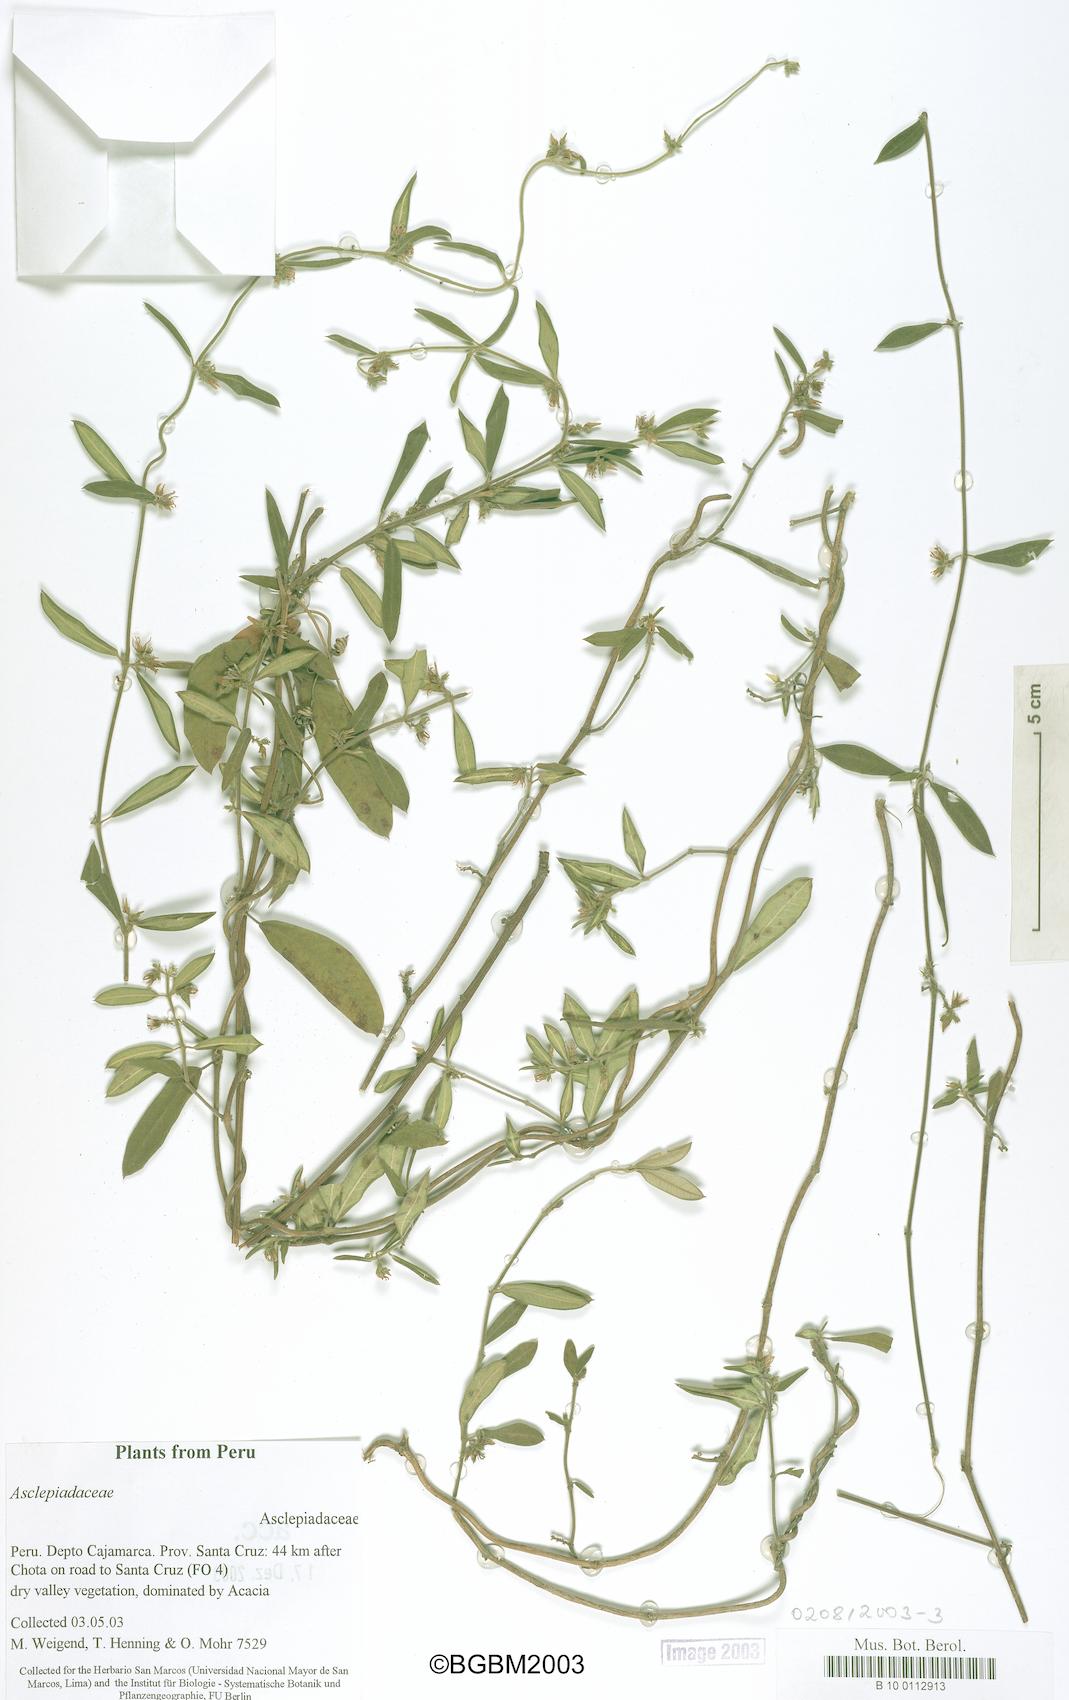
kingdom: Plantae
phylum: Tracheophyta
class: Magnoliopsida
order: Gentianales
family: Apocynaceae
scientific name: Apocynaceae
